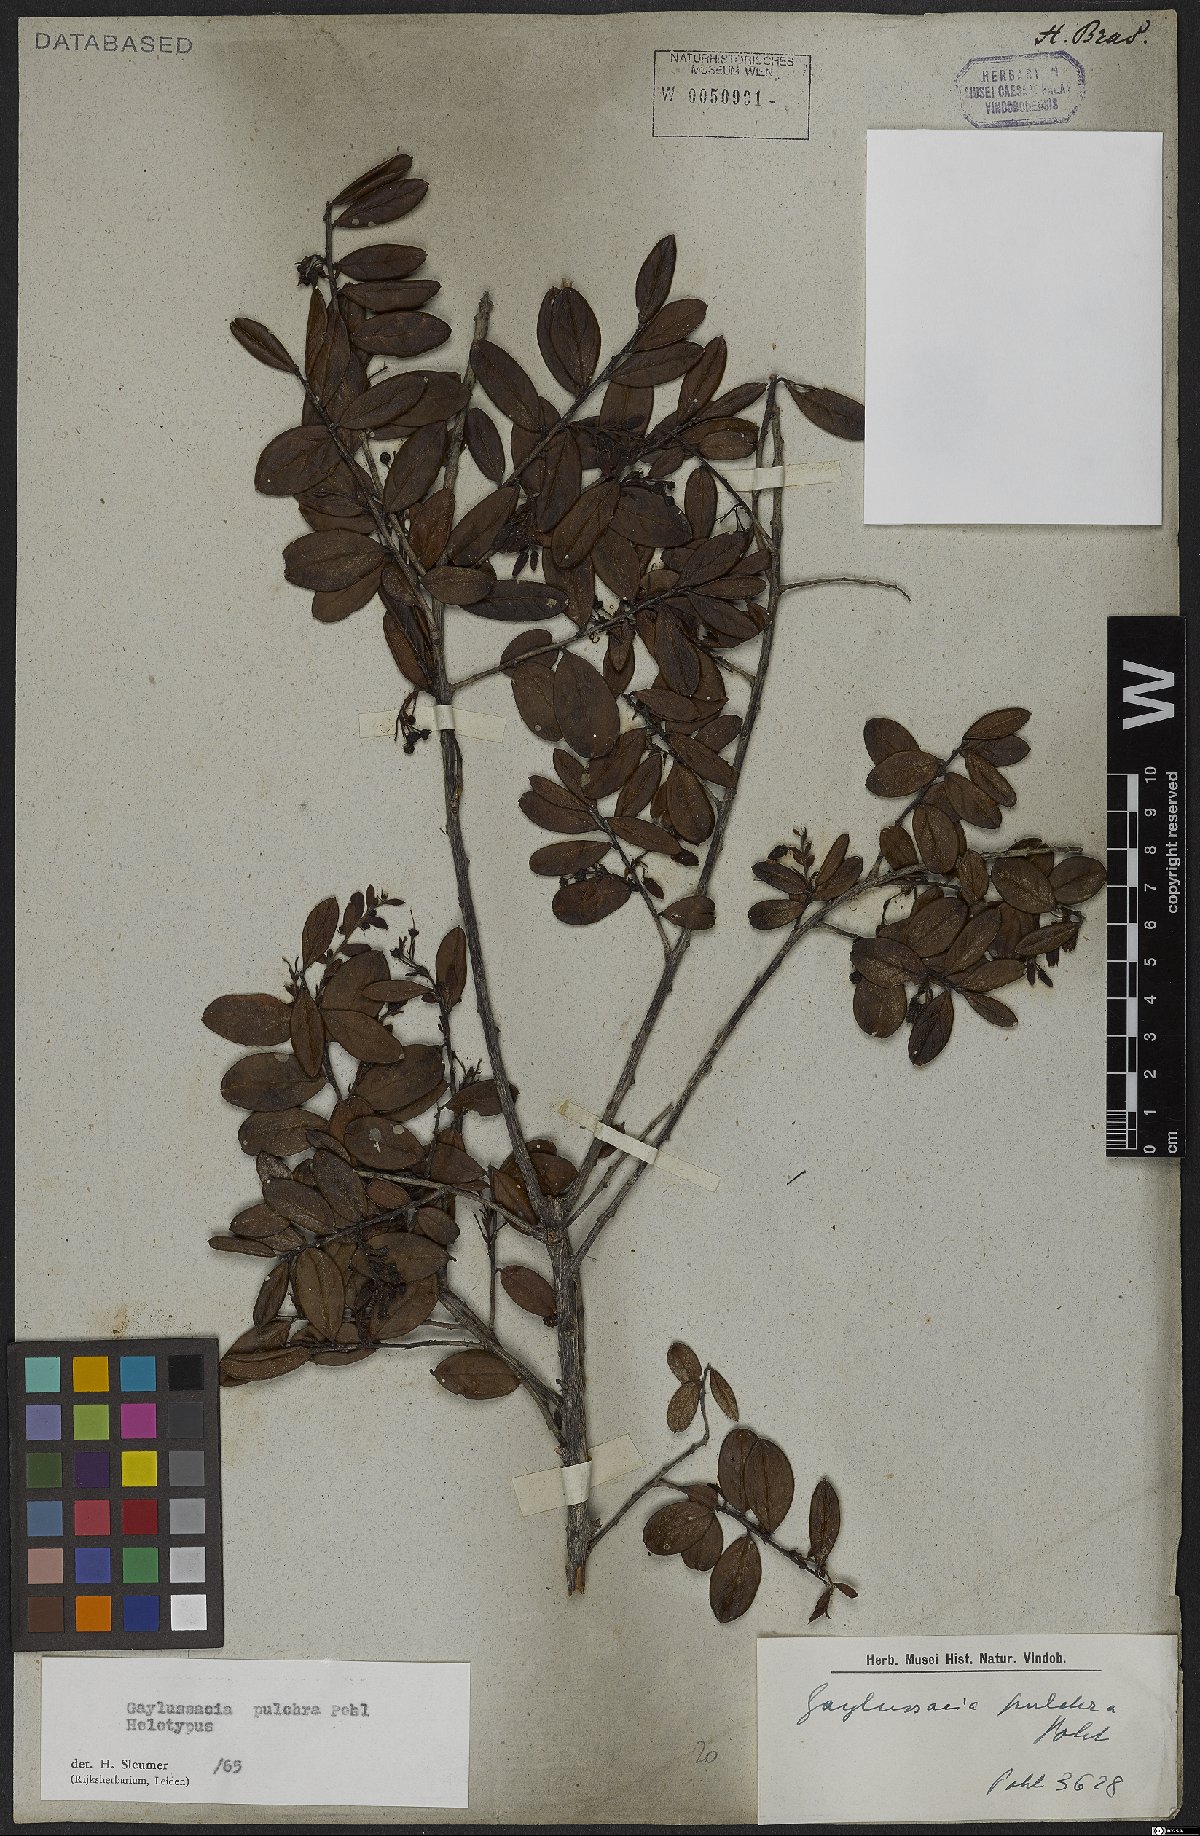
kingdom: Plantae
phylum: Tracheophyta
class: Magnoliopsida
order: Ericales
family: Ericaceae
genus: Gaylussacia
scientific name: Gaylussacia pulchra
